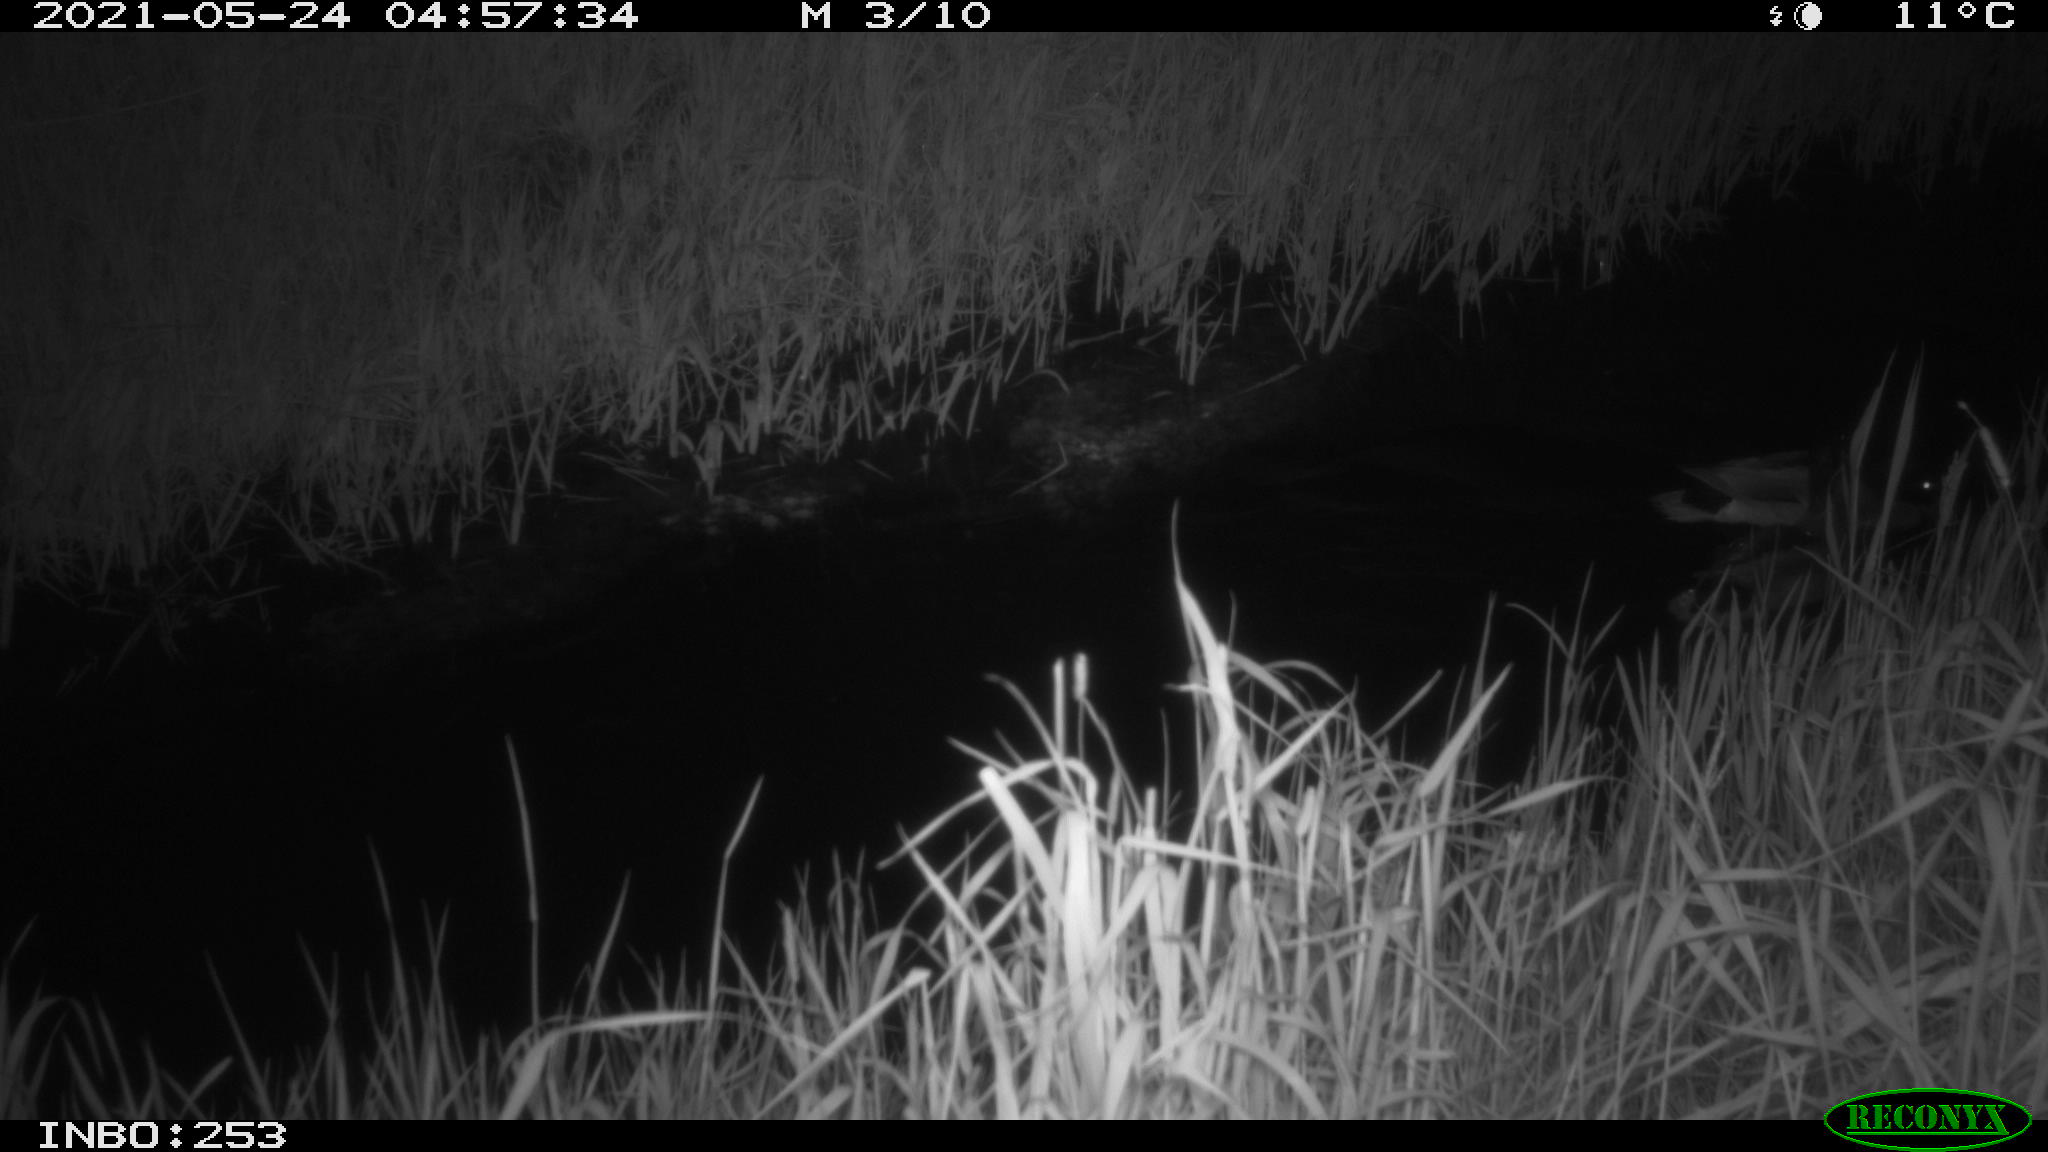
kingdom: Animalia
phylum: Chordata
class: Aves
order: Anseriformes
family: Anatidae
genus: Anas
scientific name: Anas platyrhynchos
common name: Mallard
